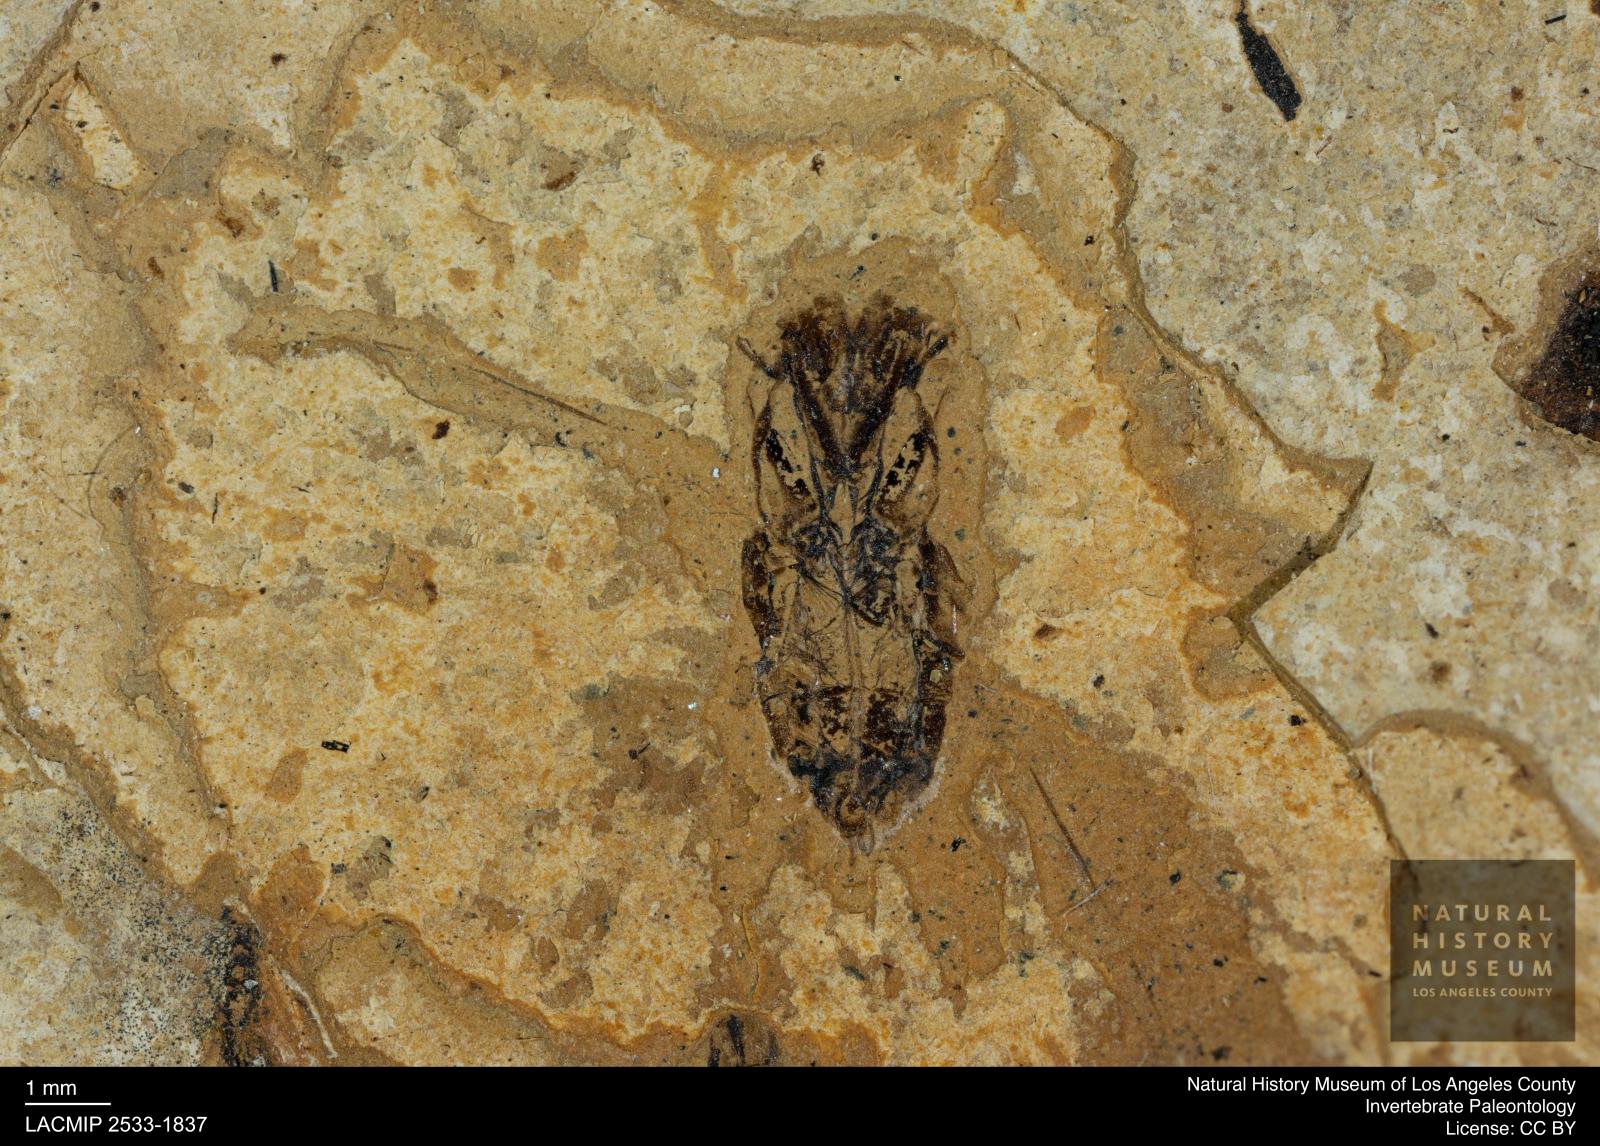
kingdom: Animalia
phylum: Arthropoda
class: Insecta
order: Hemiptera
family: Notonectidae
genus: Notonecta
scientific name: Notonecta
